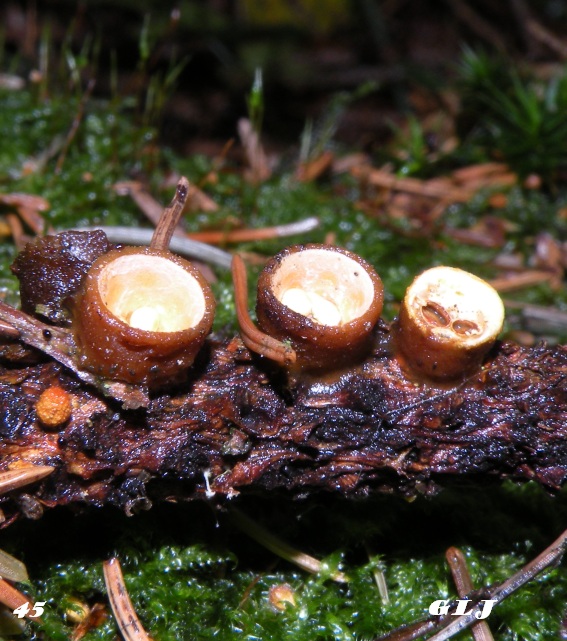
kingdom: Fungi
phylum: Basidiomycota
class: Agaricomycetes
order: Agaricales
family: Nidulariaceae
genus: Crucibulum
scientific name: Crucibulum crucibuliforme
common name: krukkesvamp
